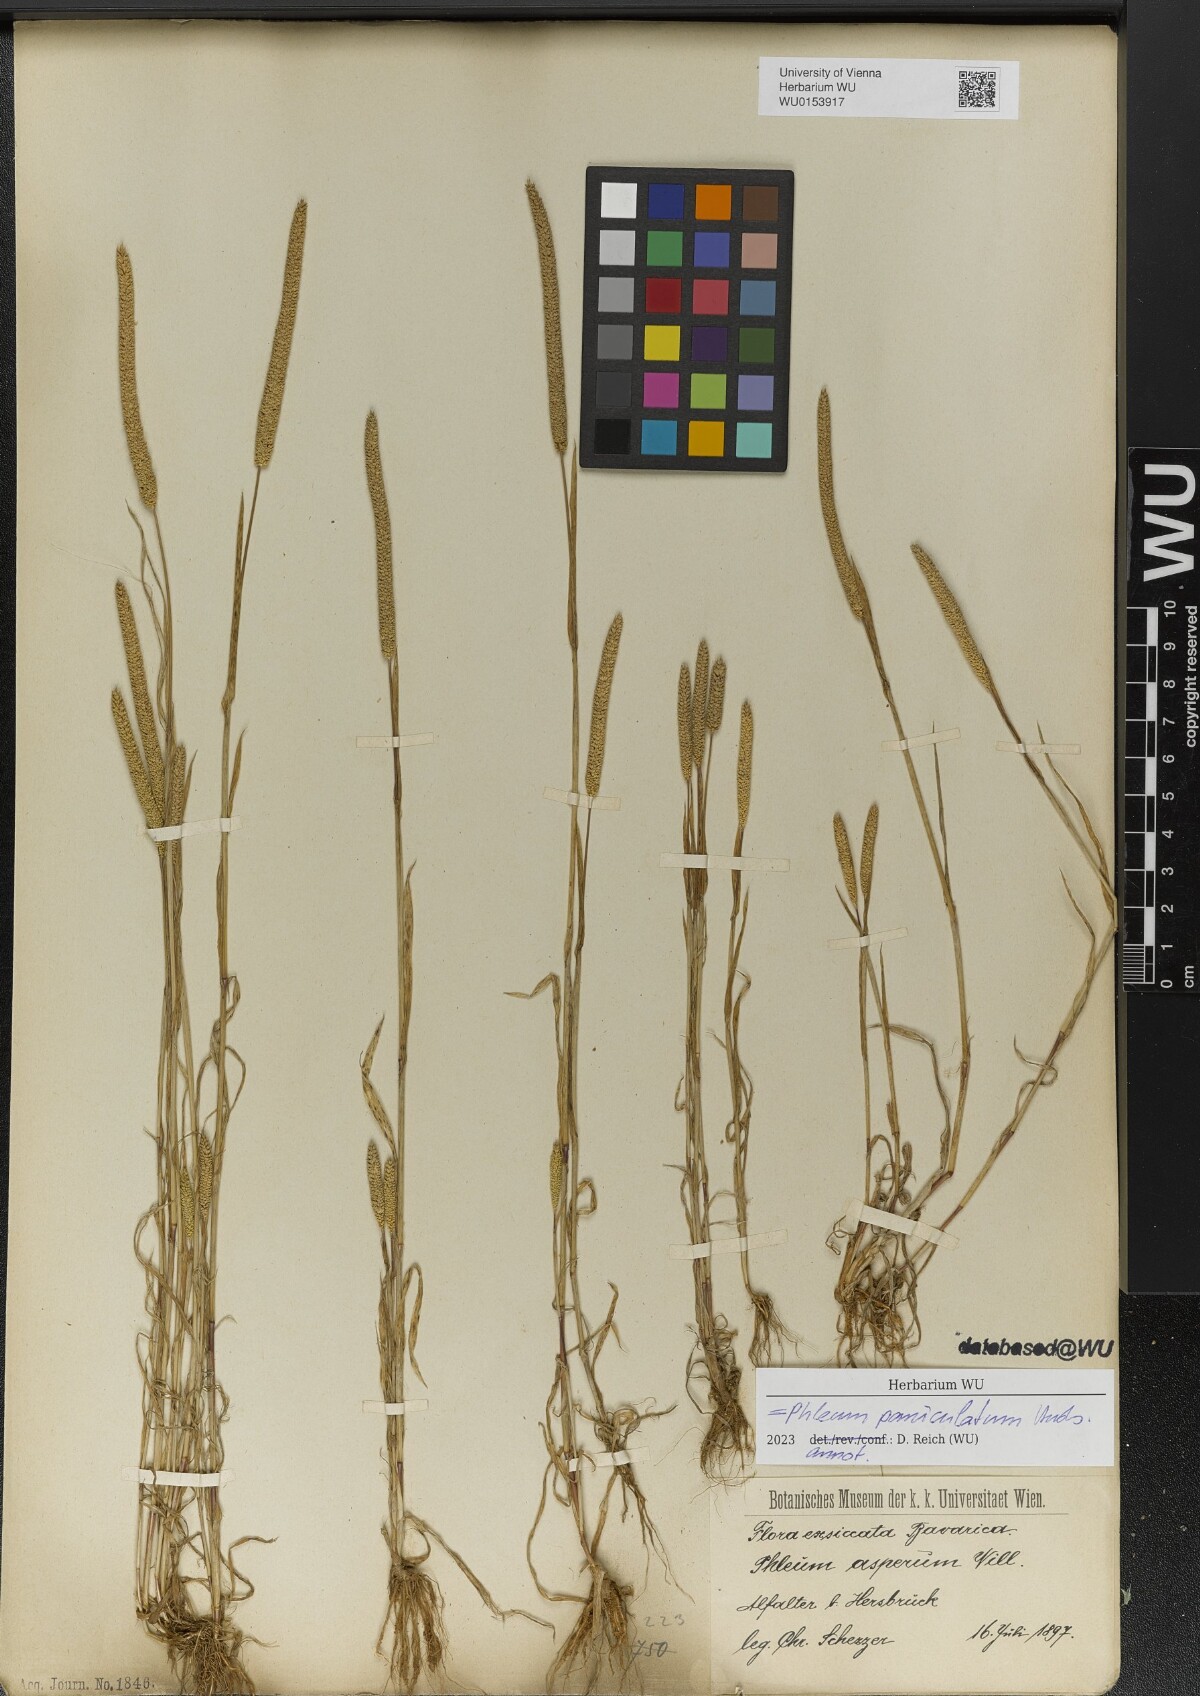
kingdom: Plantae
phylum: Tracheophyta
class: Liliopsida
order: Poales
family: Poaceae
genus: Phleum
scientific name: Phleum paniculatum
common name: British timothy
